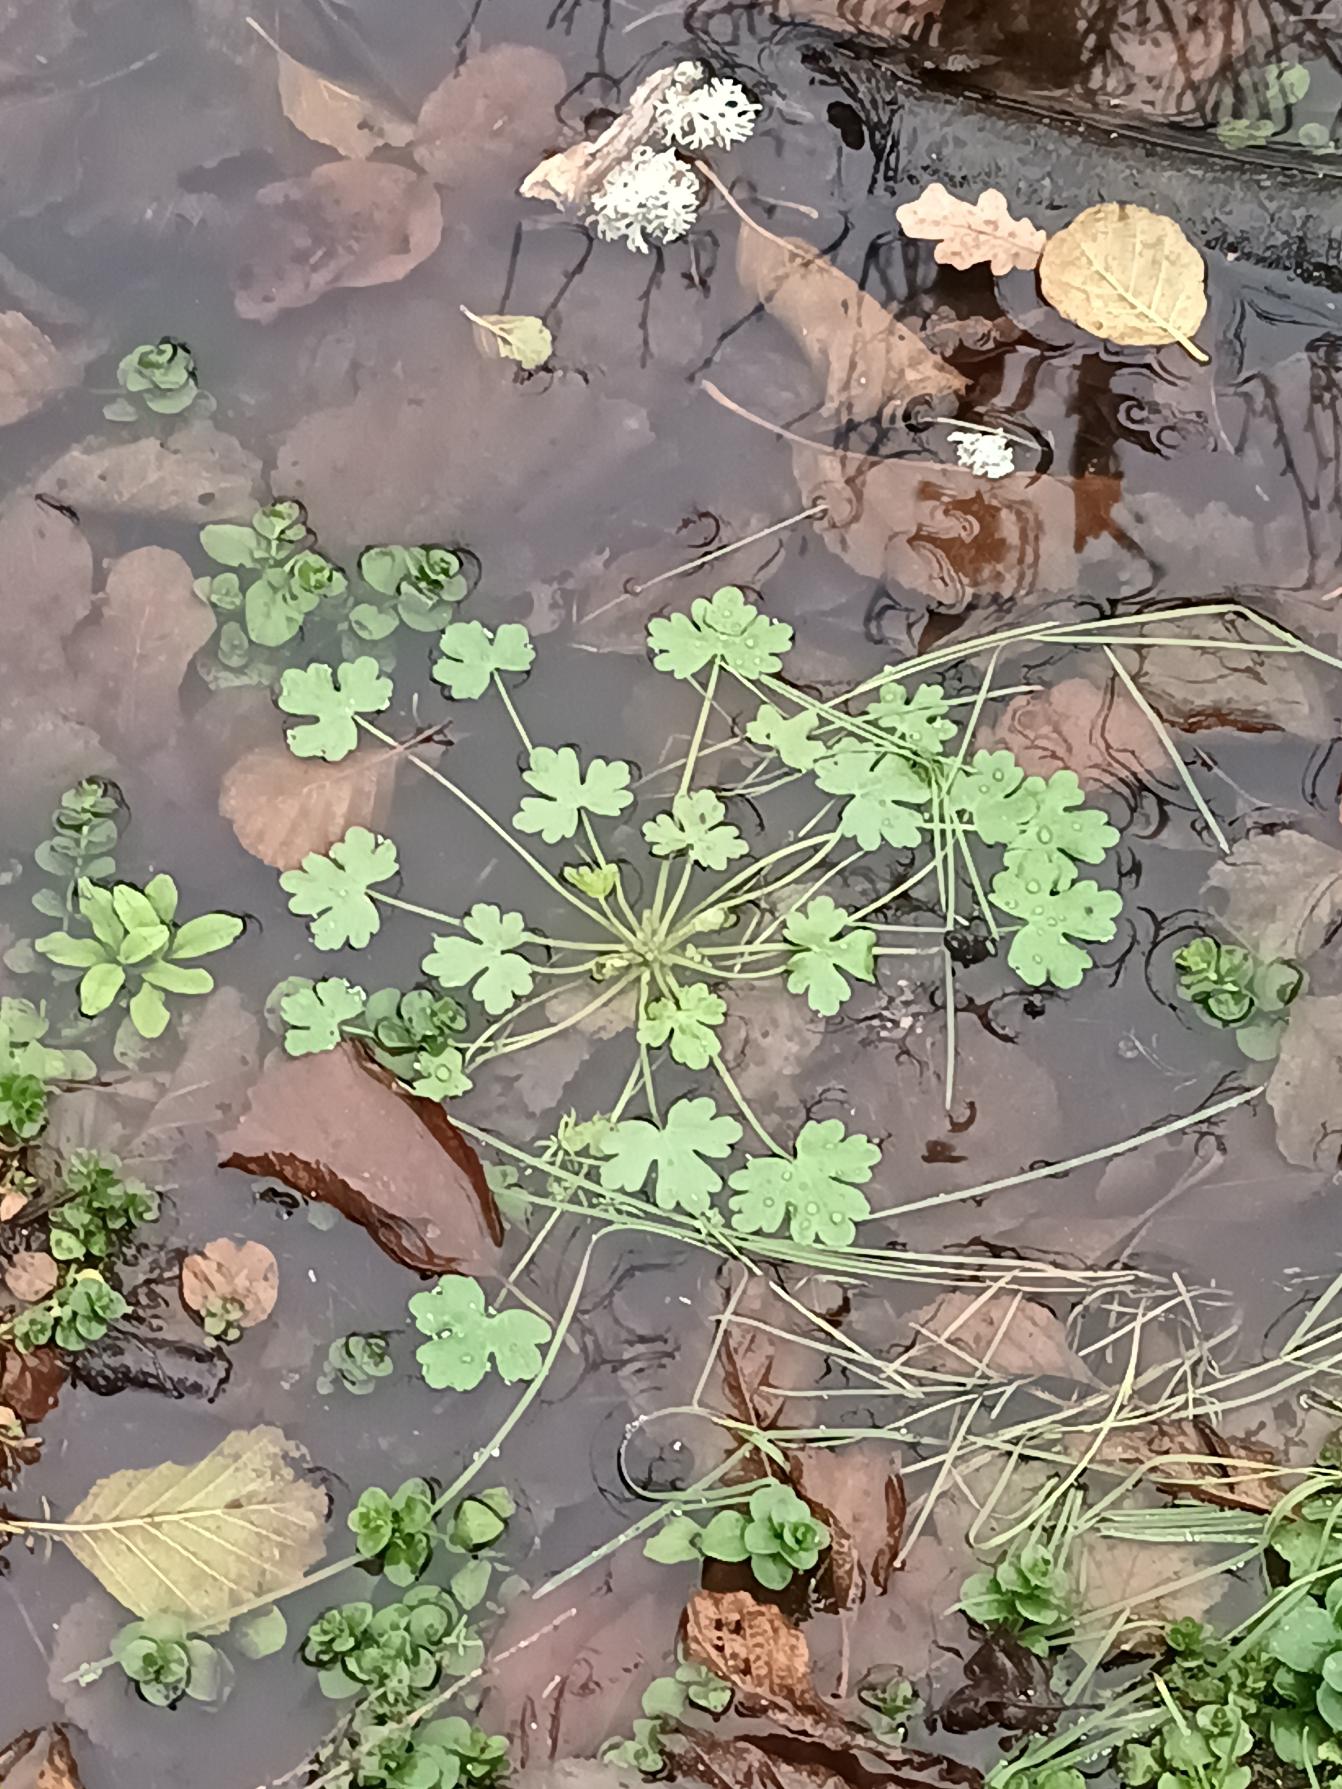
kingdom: Plantae
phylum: Tracheophyta
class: Magnoliopsida
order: Ranunculales
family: Ranunculaceae
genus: Ranunculus
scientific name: Ranunculus sceleratus
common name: Tigger-ranunkel
